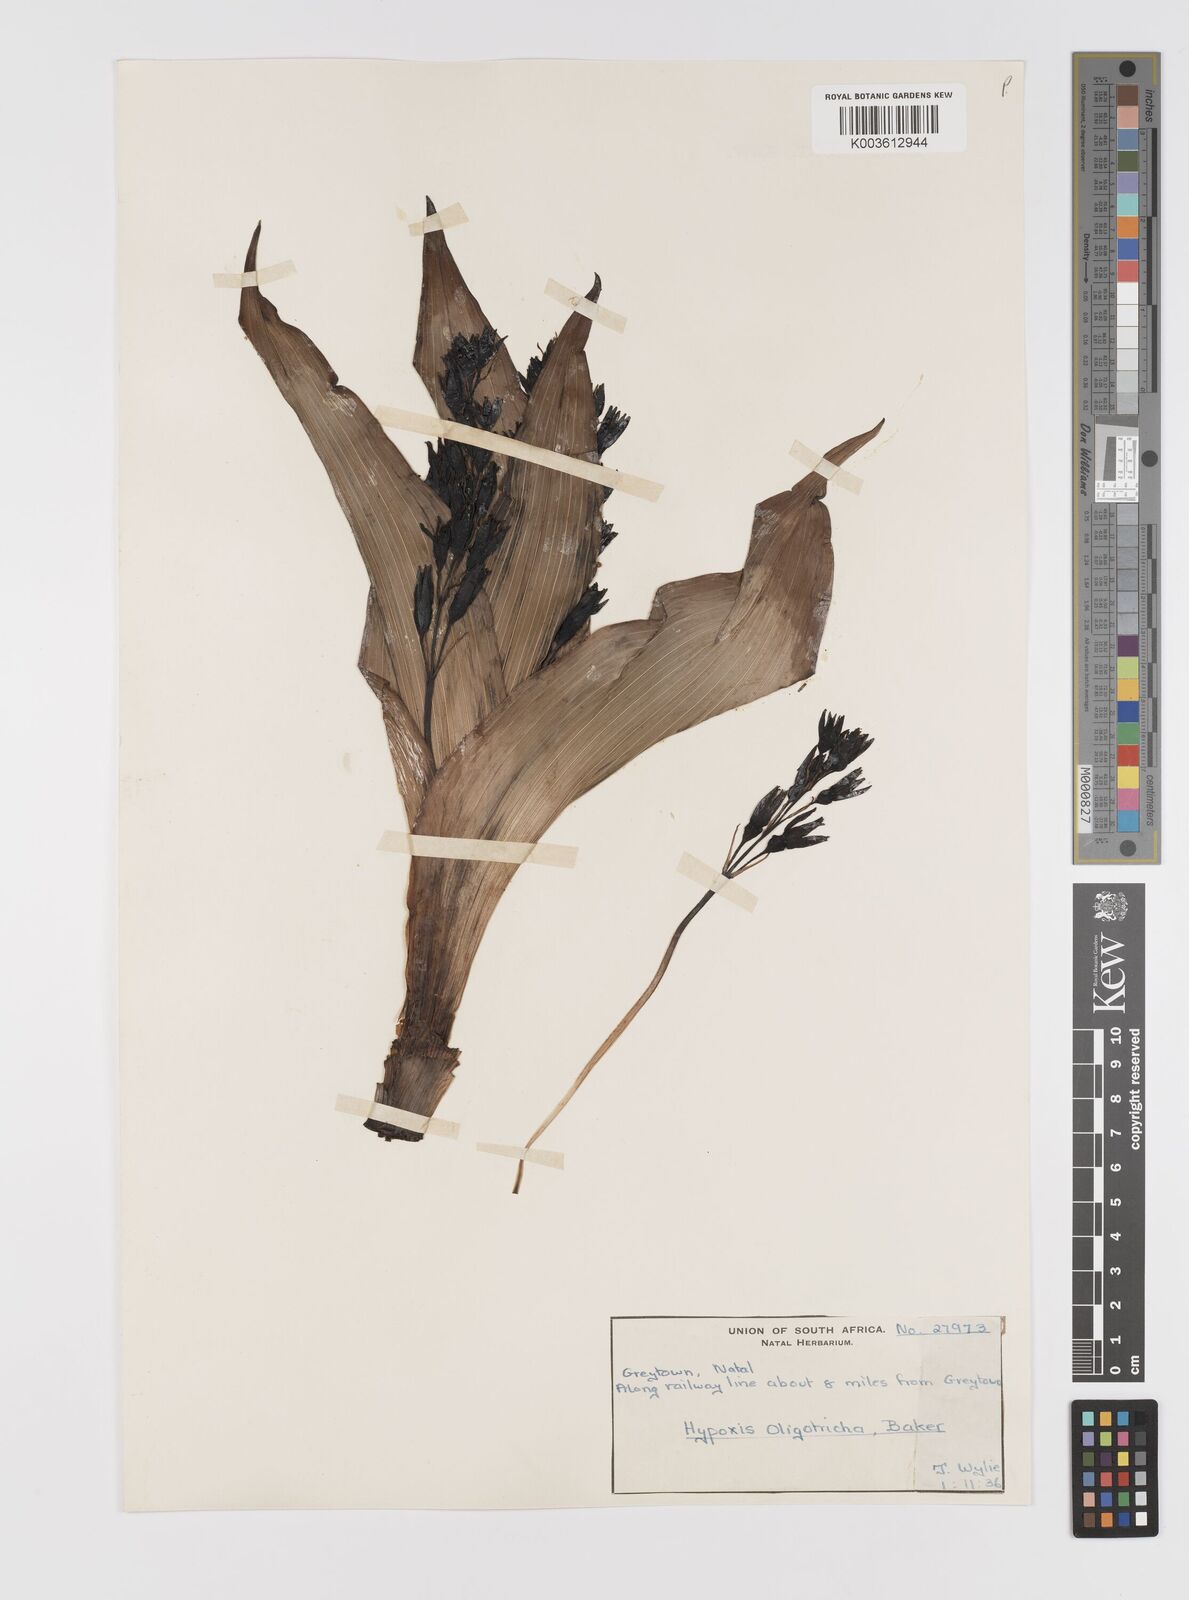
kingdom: Plantae
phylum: Tracheophyta
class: Liliopsida
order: Asparagales
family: Hypoxidaceae
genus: Hypoxis
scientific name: Hypoxis
